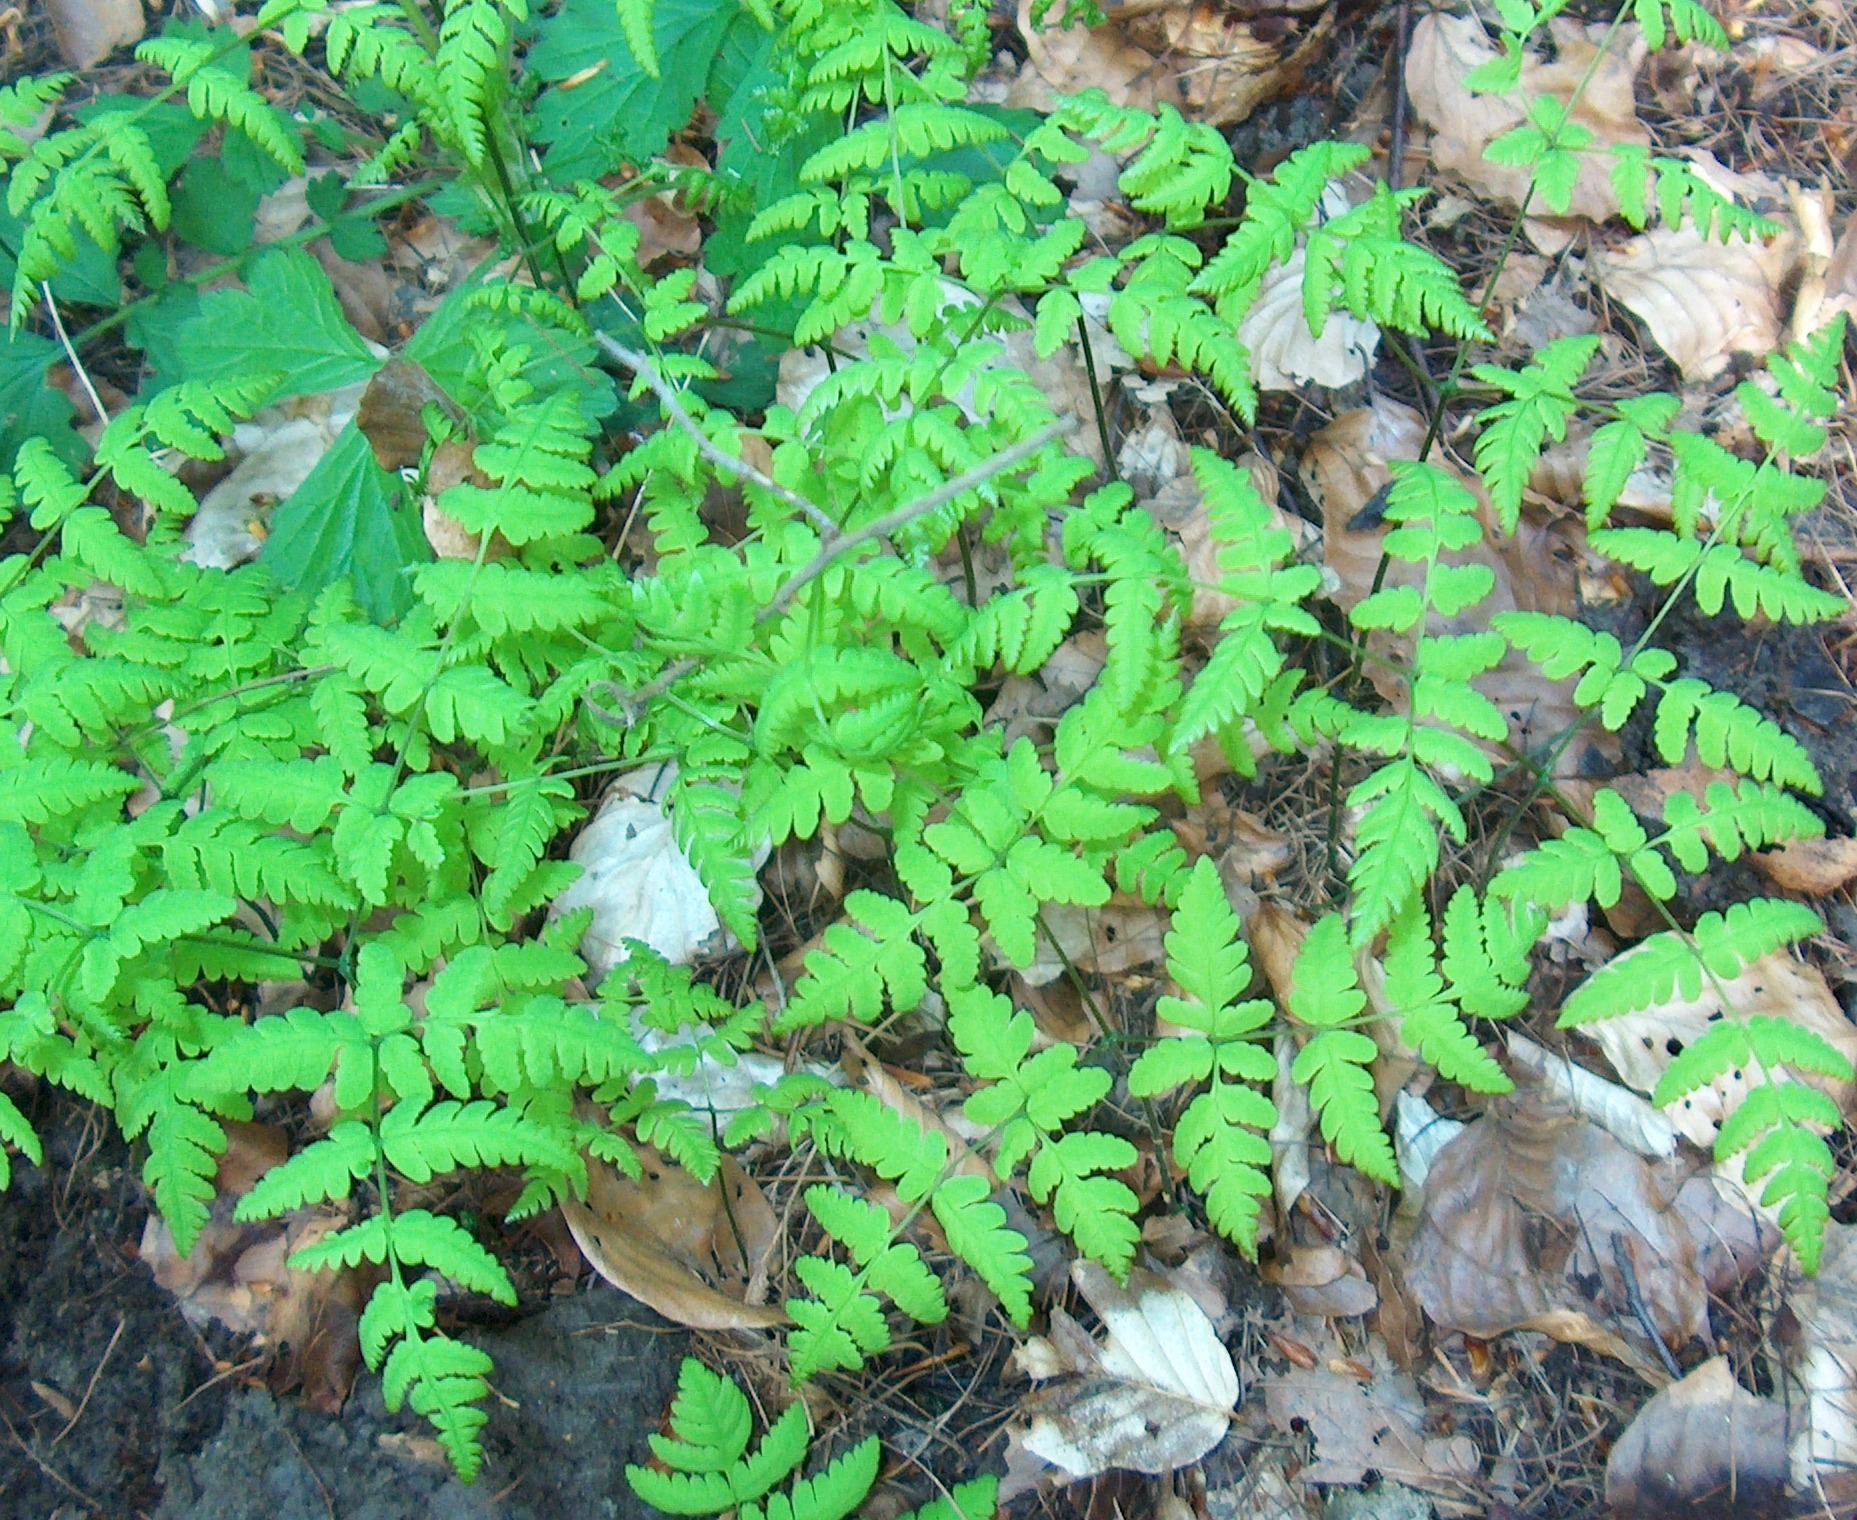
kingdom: Plantae
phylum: Tracheophyta
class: Polypodiopsida
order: Polypodiales
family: Cystopteridaceae
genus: Gymnocarpium
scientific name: Gymnocarpium dryopteris
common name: Tredelt egebregne
